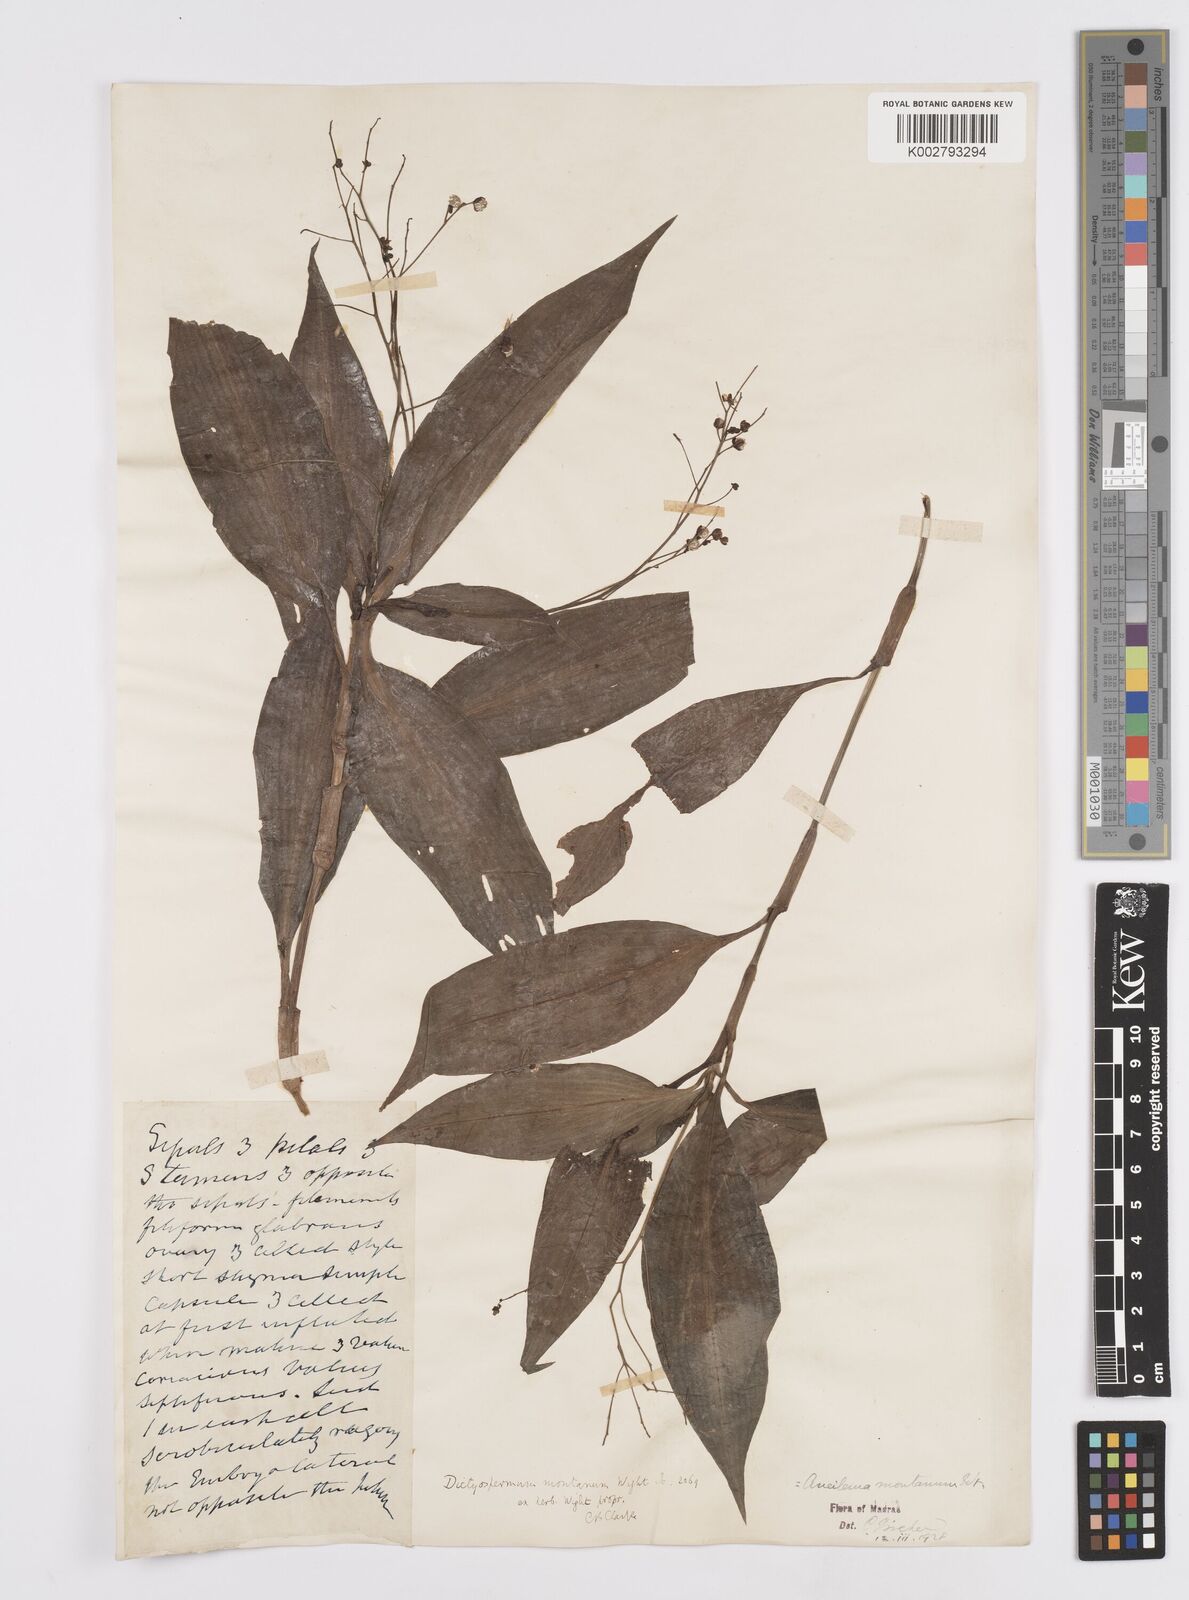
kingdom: Plantae
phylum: Tracheophyta
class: Liliopsida
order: Commelinales
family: Commelinaceae
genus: Murdannia
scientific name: Murdannia
